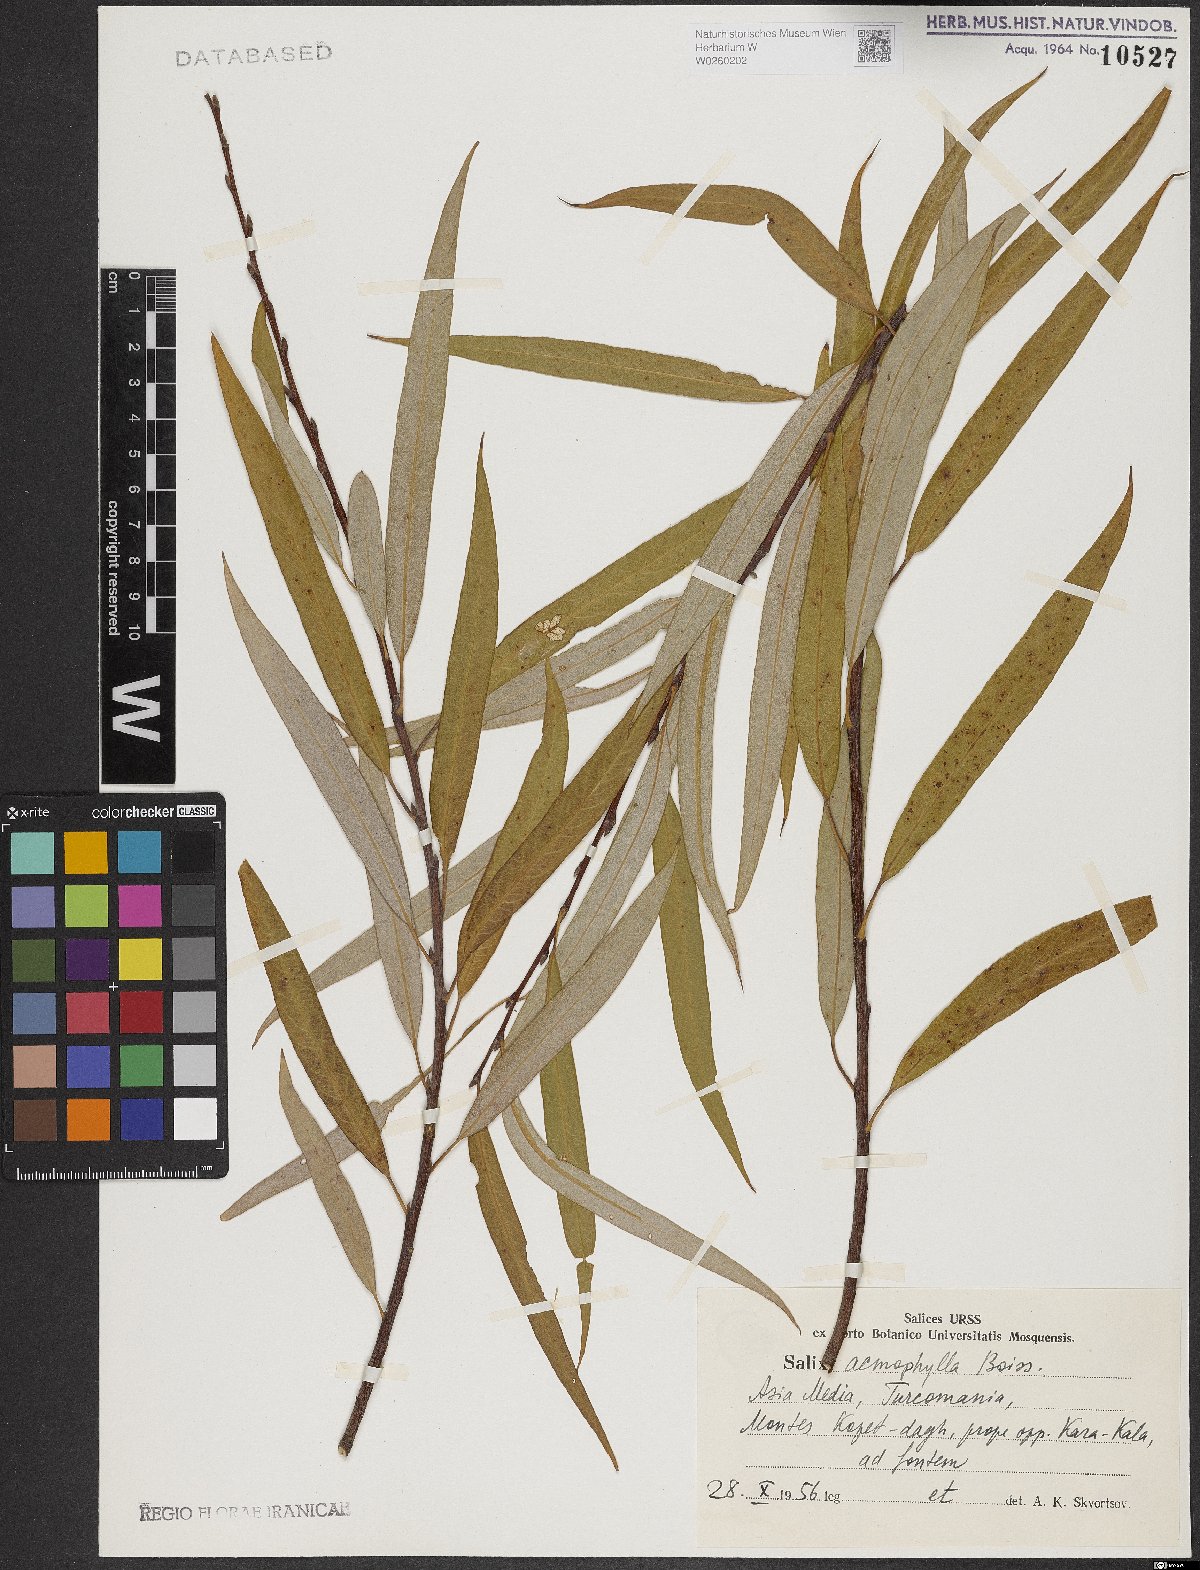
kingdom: Plantae
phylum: Tracheophyta
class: Magnoliopsida
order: Malpighiales
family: Salicaceae
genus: Salix
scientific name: Salix acmophylla
